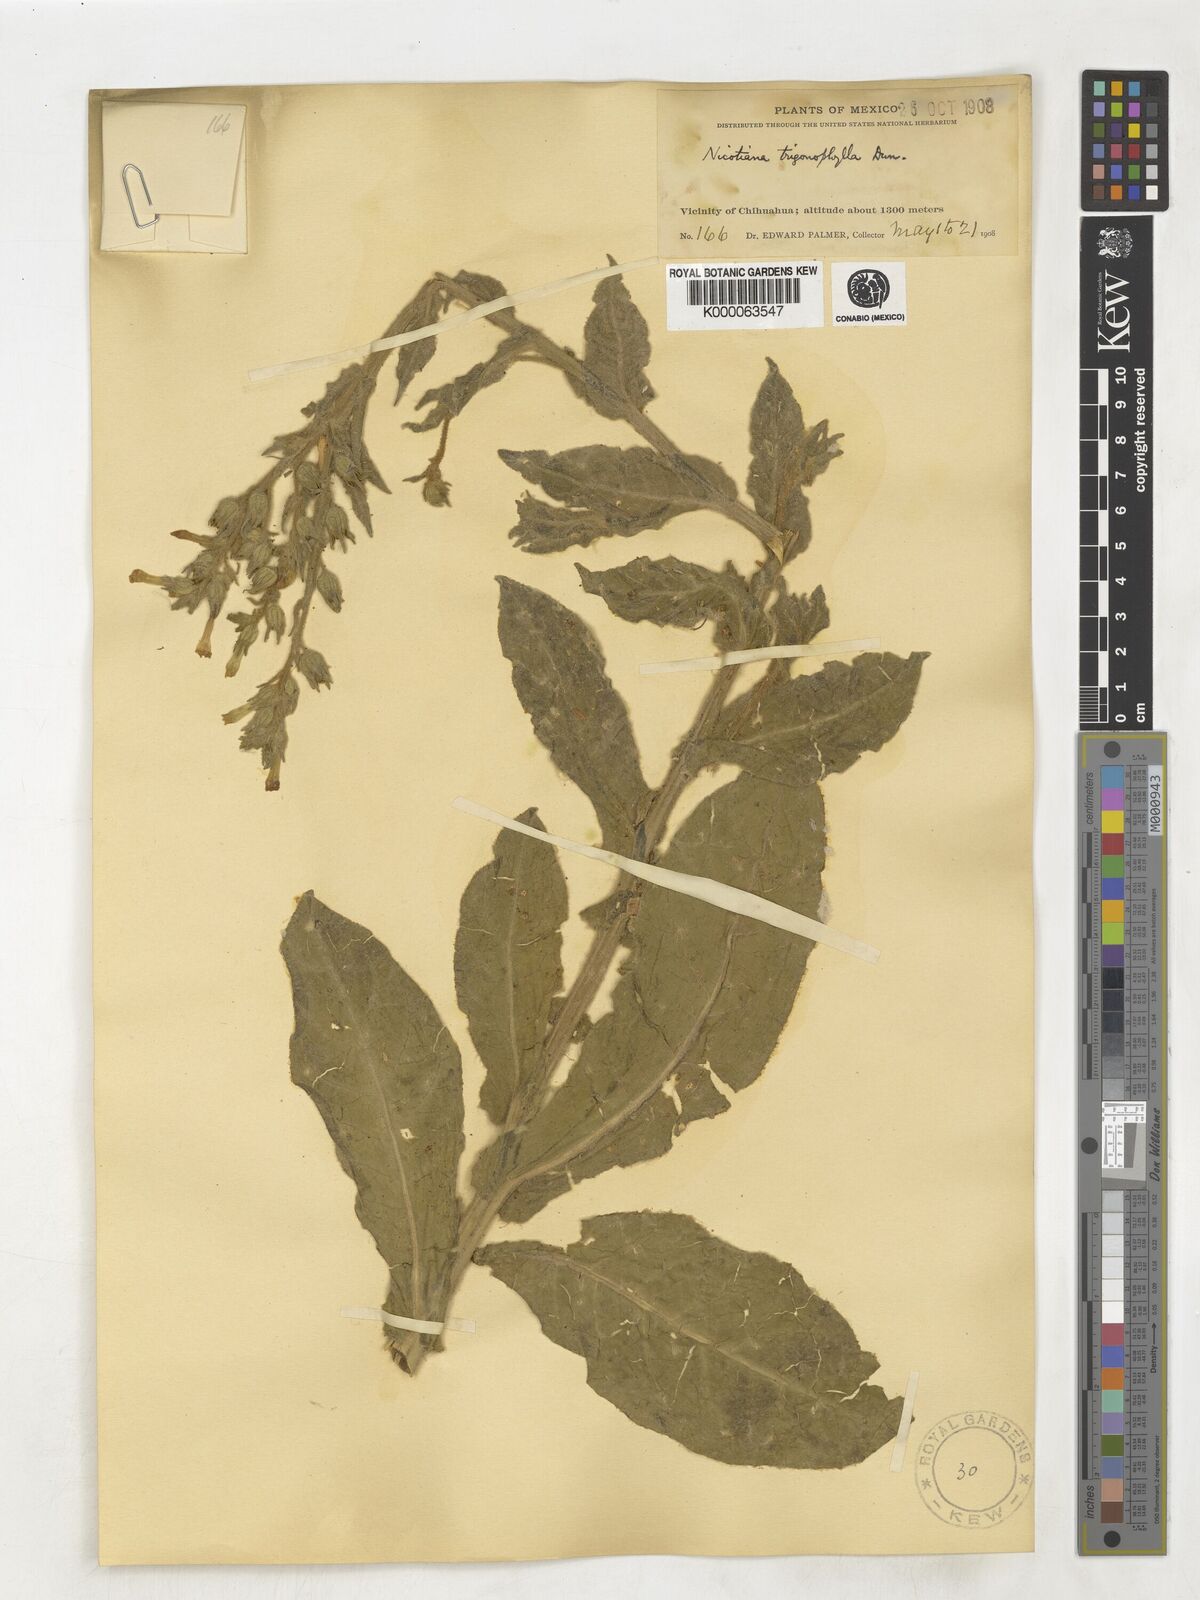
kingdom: Plantae
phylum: Tracheophyta
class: Magnoliopsida
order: Solanales
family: Solanaceae
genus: Nicotiana
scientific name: Nicotiana obtusifolia
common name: Desert tobacco
